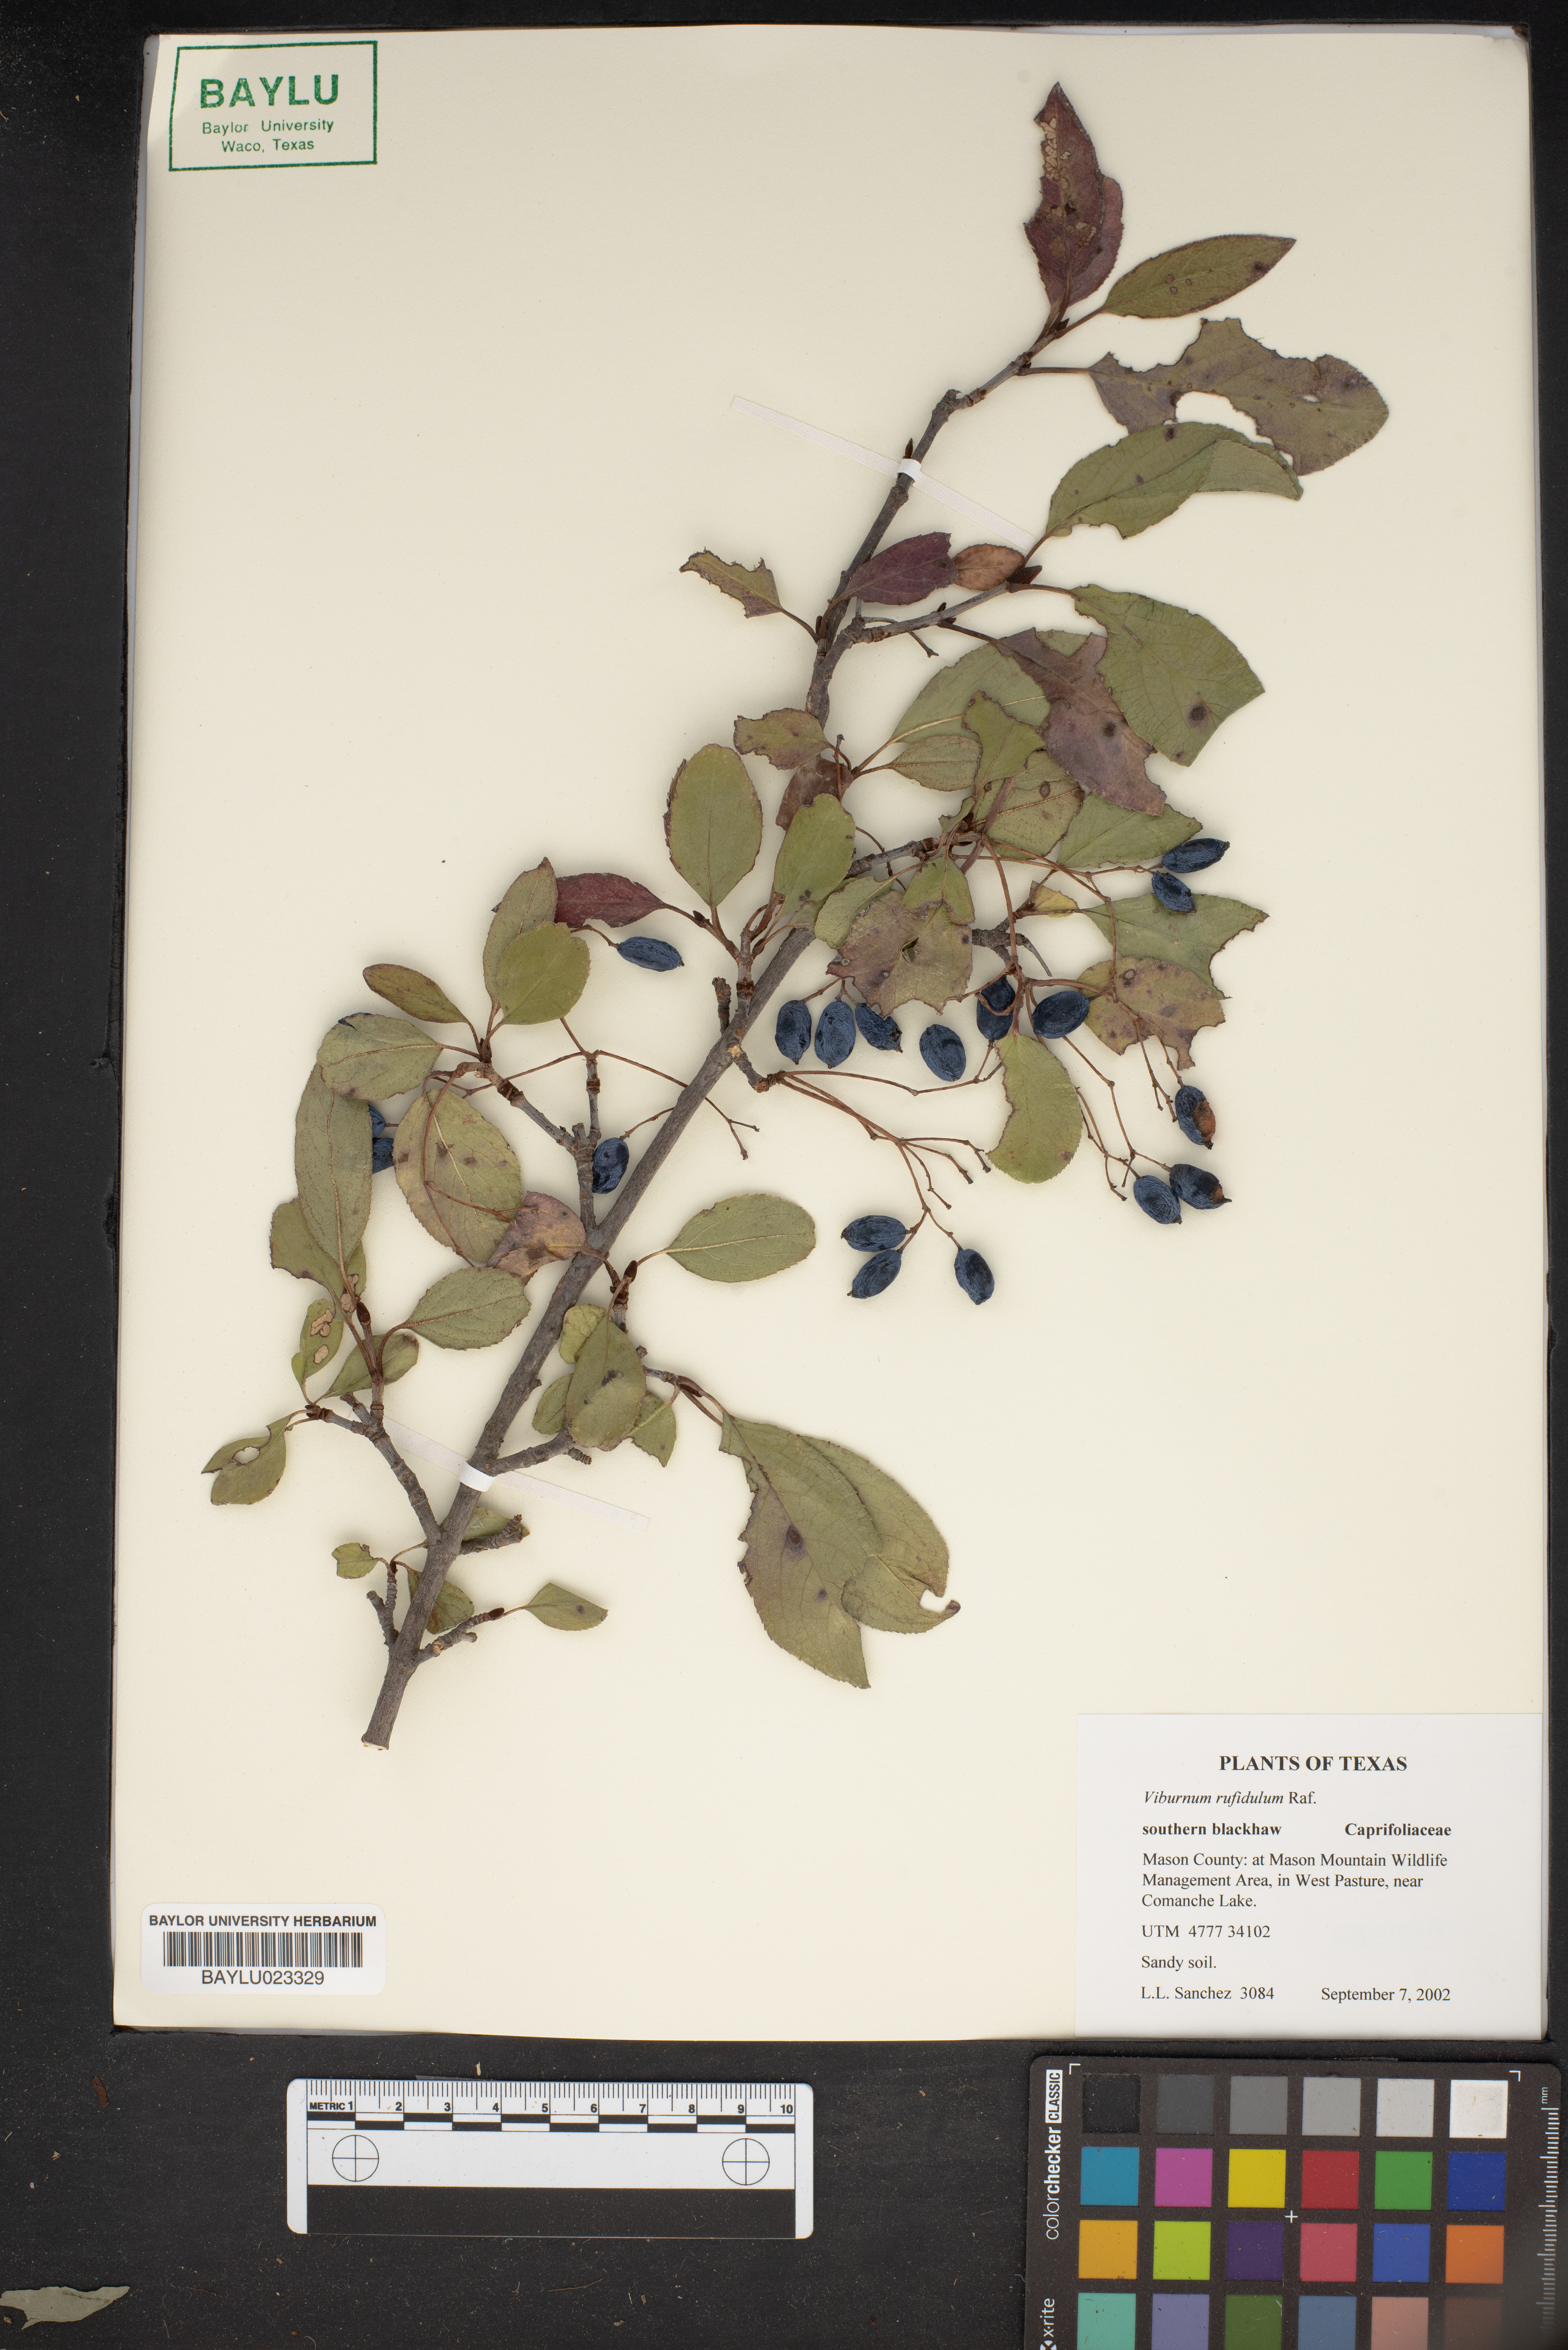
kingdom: Plantae
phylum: Tracheophyta
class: Magnoliopsida
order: Dipsacales
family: Viburnaceae
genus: Viburnum
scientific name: Viburnum rufidulum
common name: Blue haw
